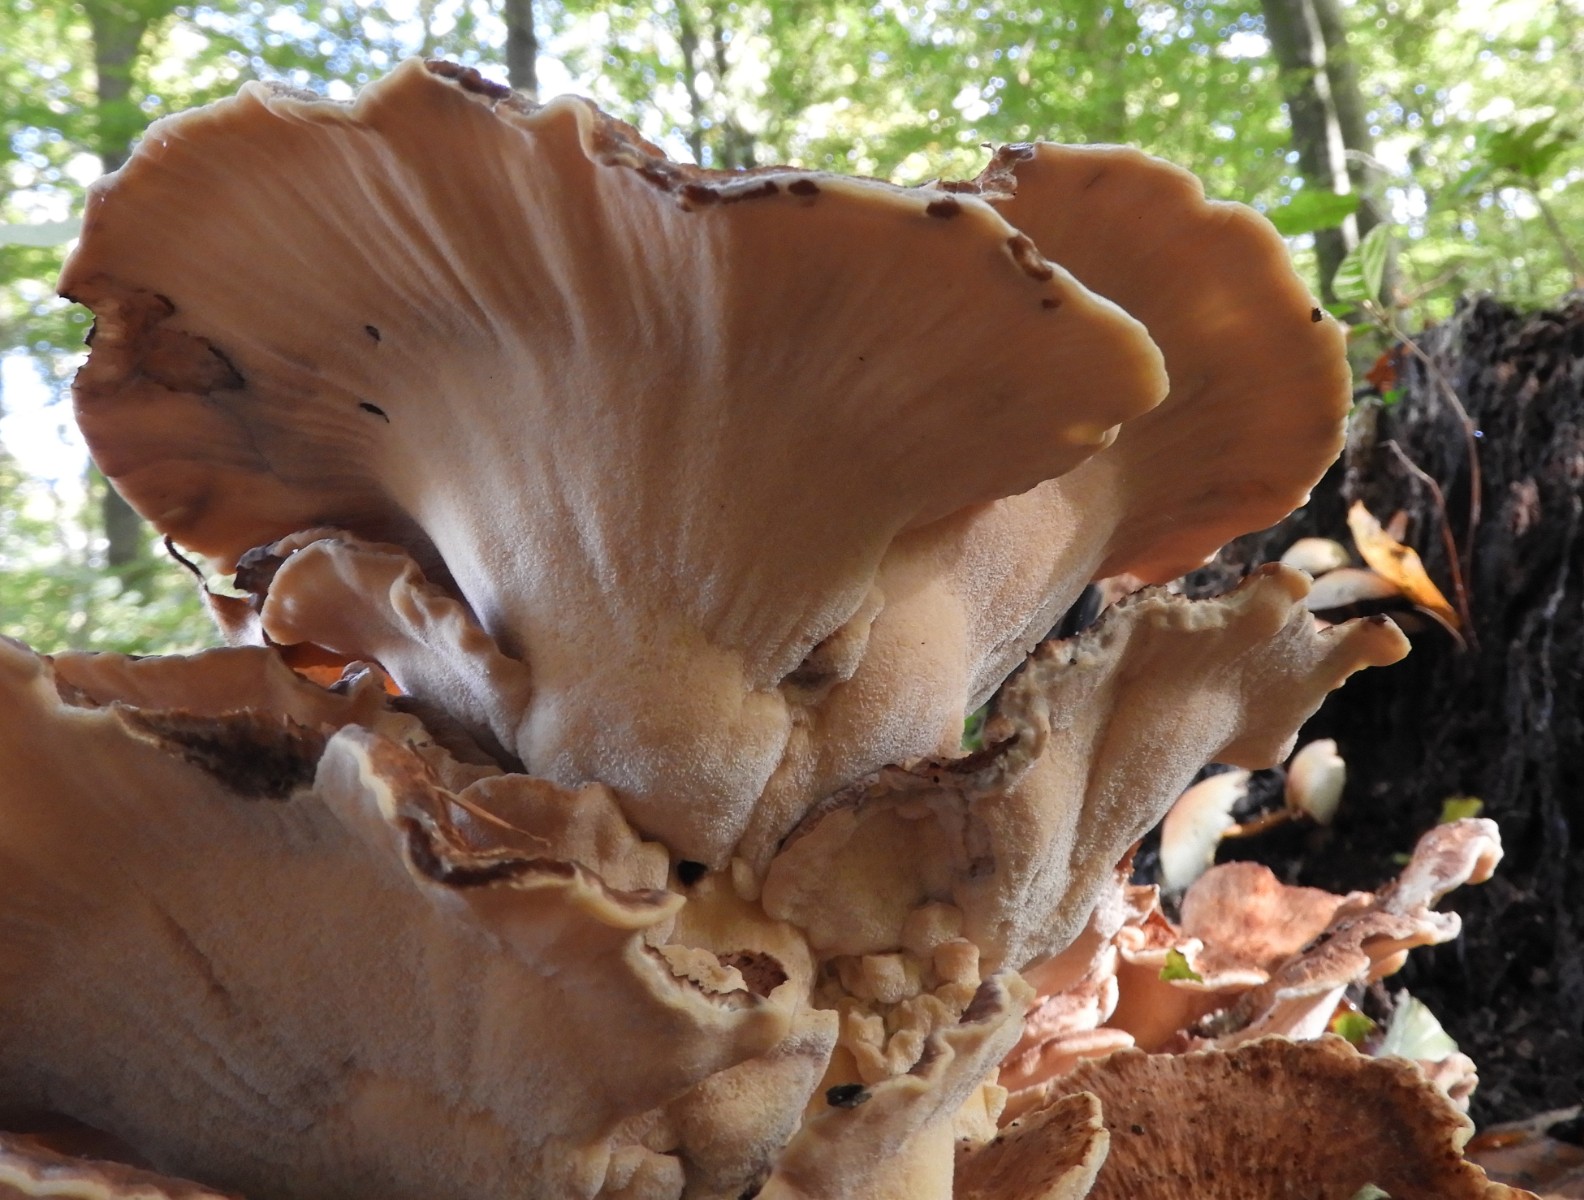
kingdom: Fungi
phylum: Basidiomycota
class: Agaricomycetes
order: Polyporales
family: Meripilaceae
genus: Meripilus
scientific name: Meripilus giganteus
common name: kæmpeporesvamp
